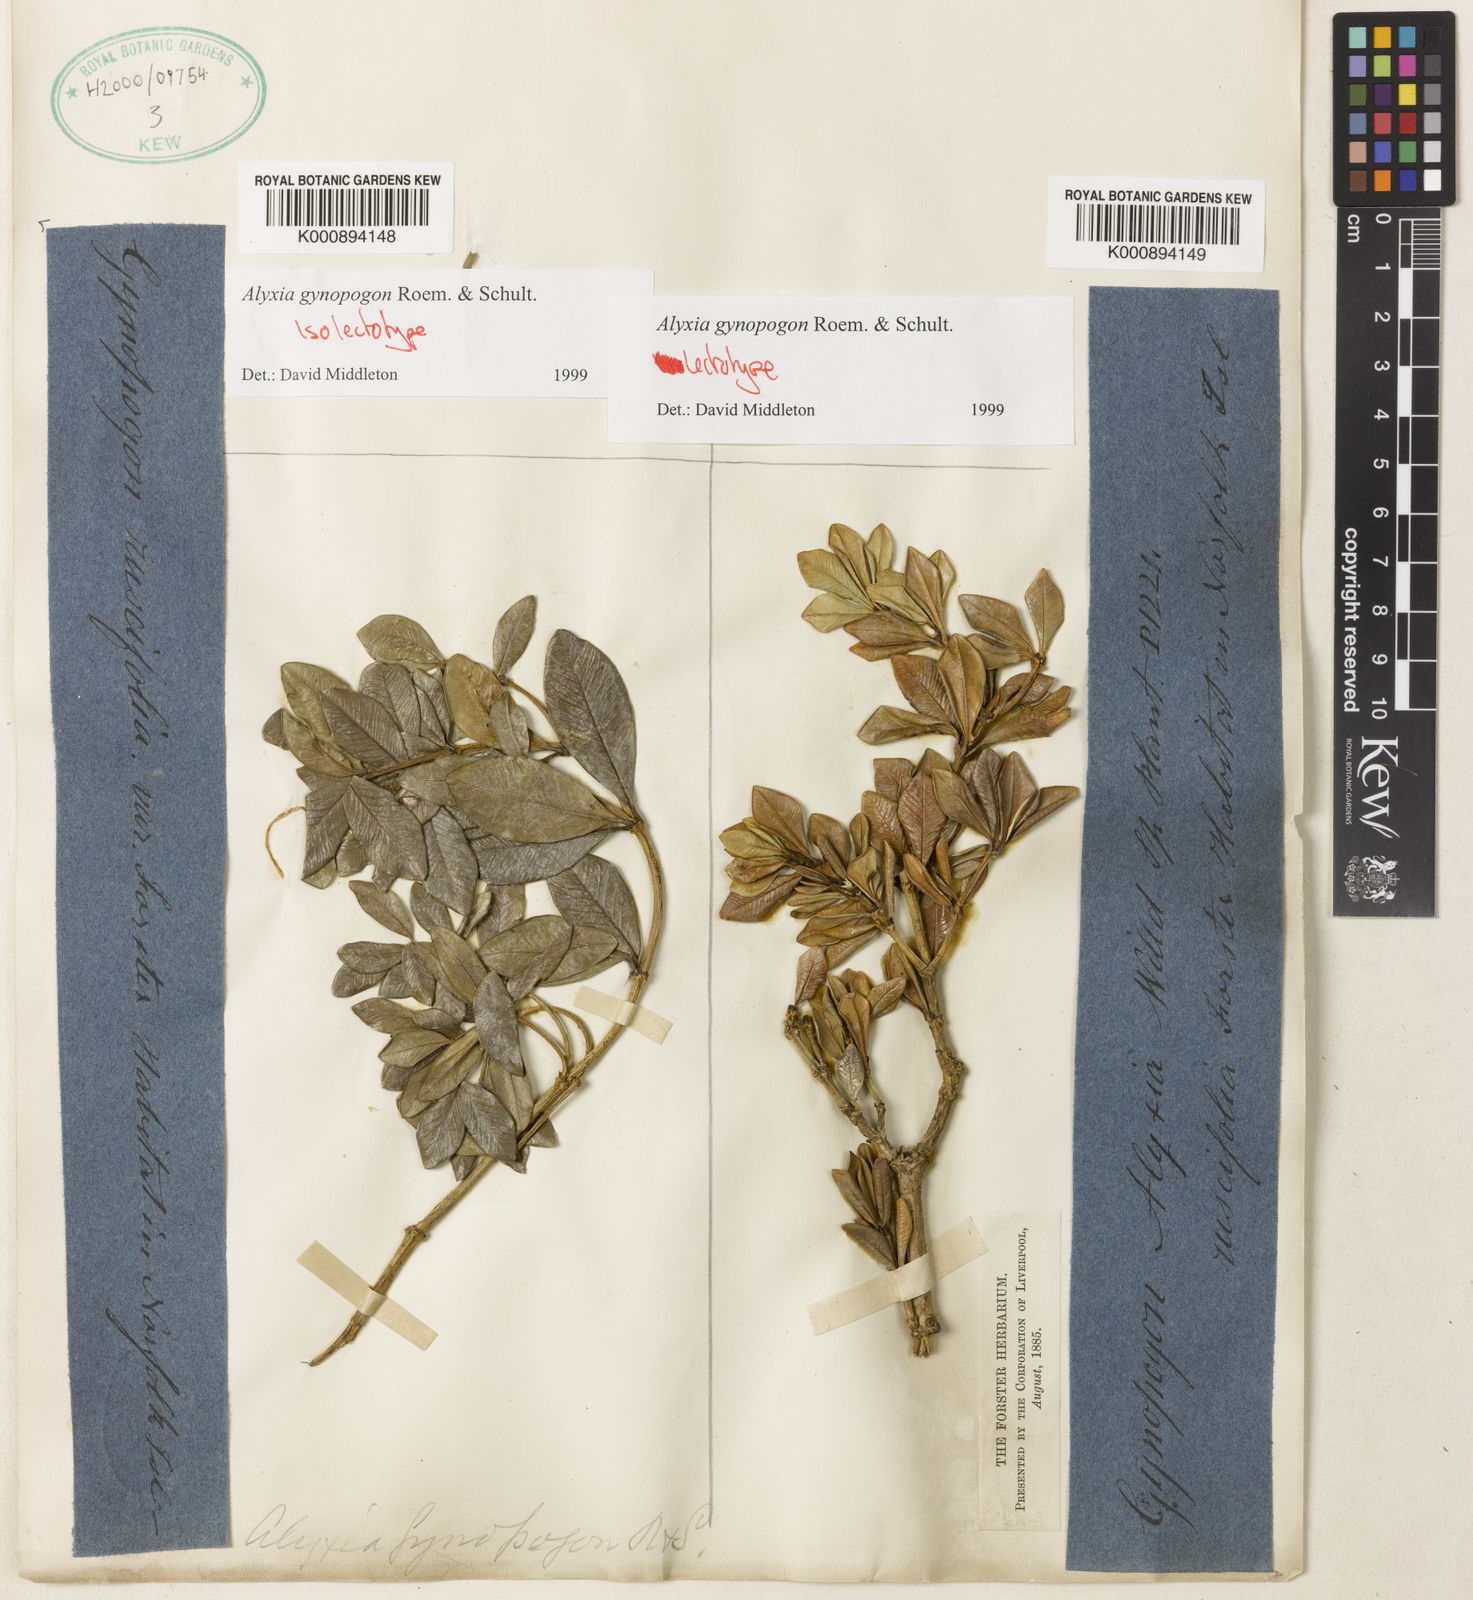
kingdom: Plantae
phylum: Tracheophyta
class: Magnoliopsida
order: Gentianales
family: Apocynaceae
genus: Alyxia
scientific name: Alyxia gynopogon
